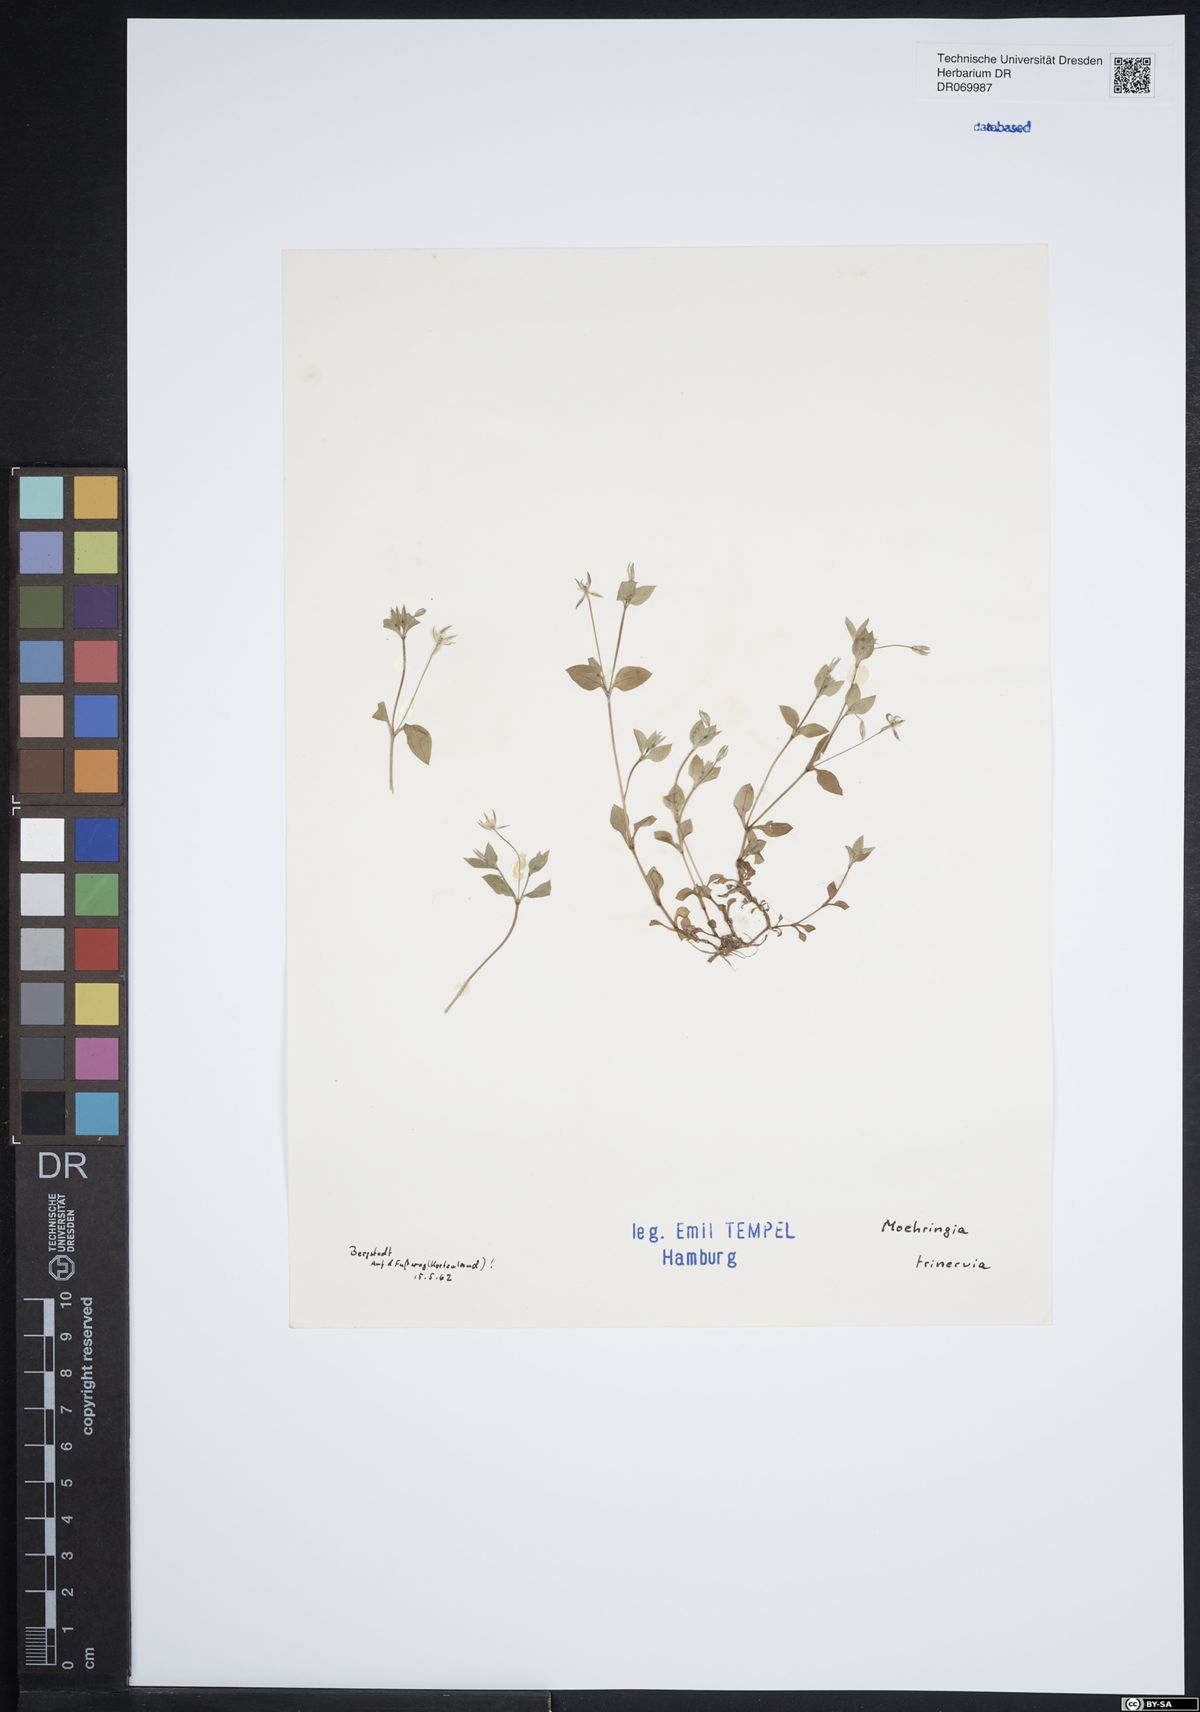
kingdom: Plantae
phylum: Tracheophyta
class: Magnoliopsida
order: Caryophyllales
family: Caryophyllaceae
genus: Moehringia
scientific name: Moehringia trinervia
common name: Three-nerved sandwort
